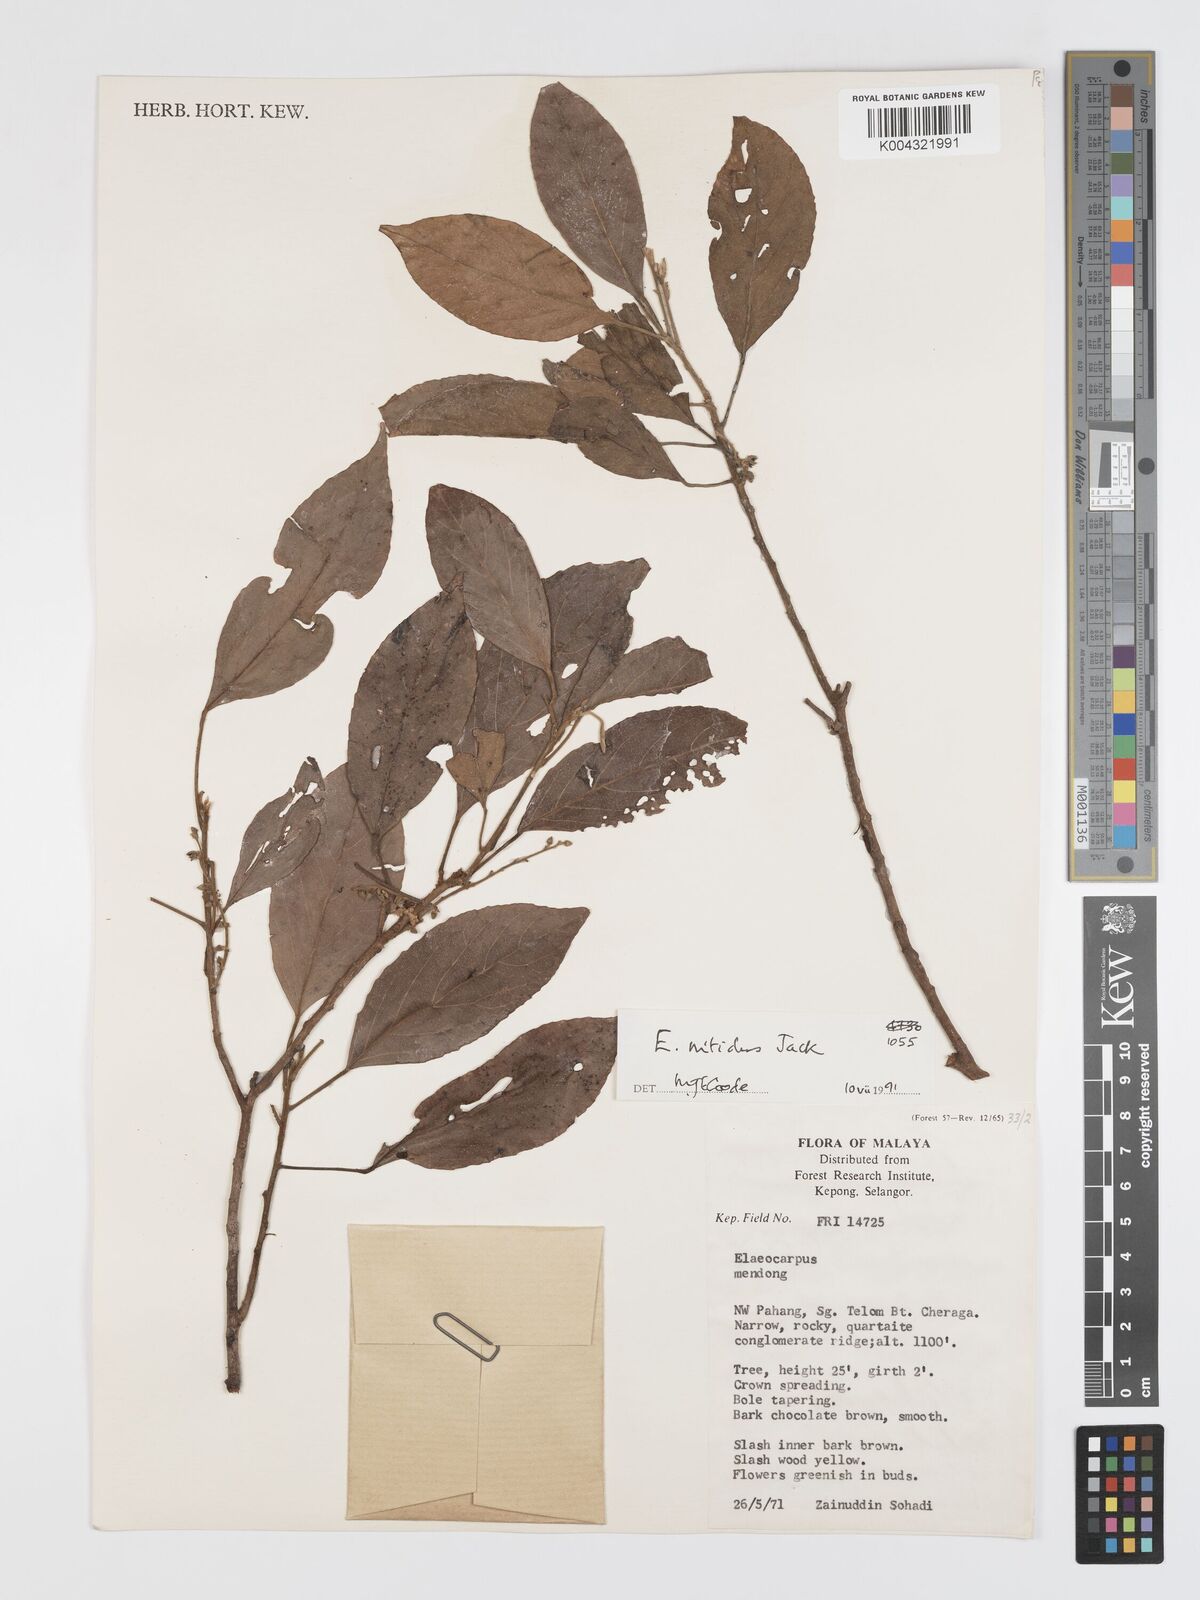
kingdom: Plantae
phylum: Tracheophyta
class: Magnoliopsida
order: Oxalidales
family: Elaeocarpaceae
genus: Elaeocarpus
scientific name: Elaeocarpus nitidus
